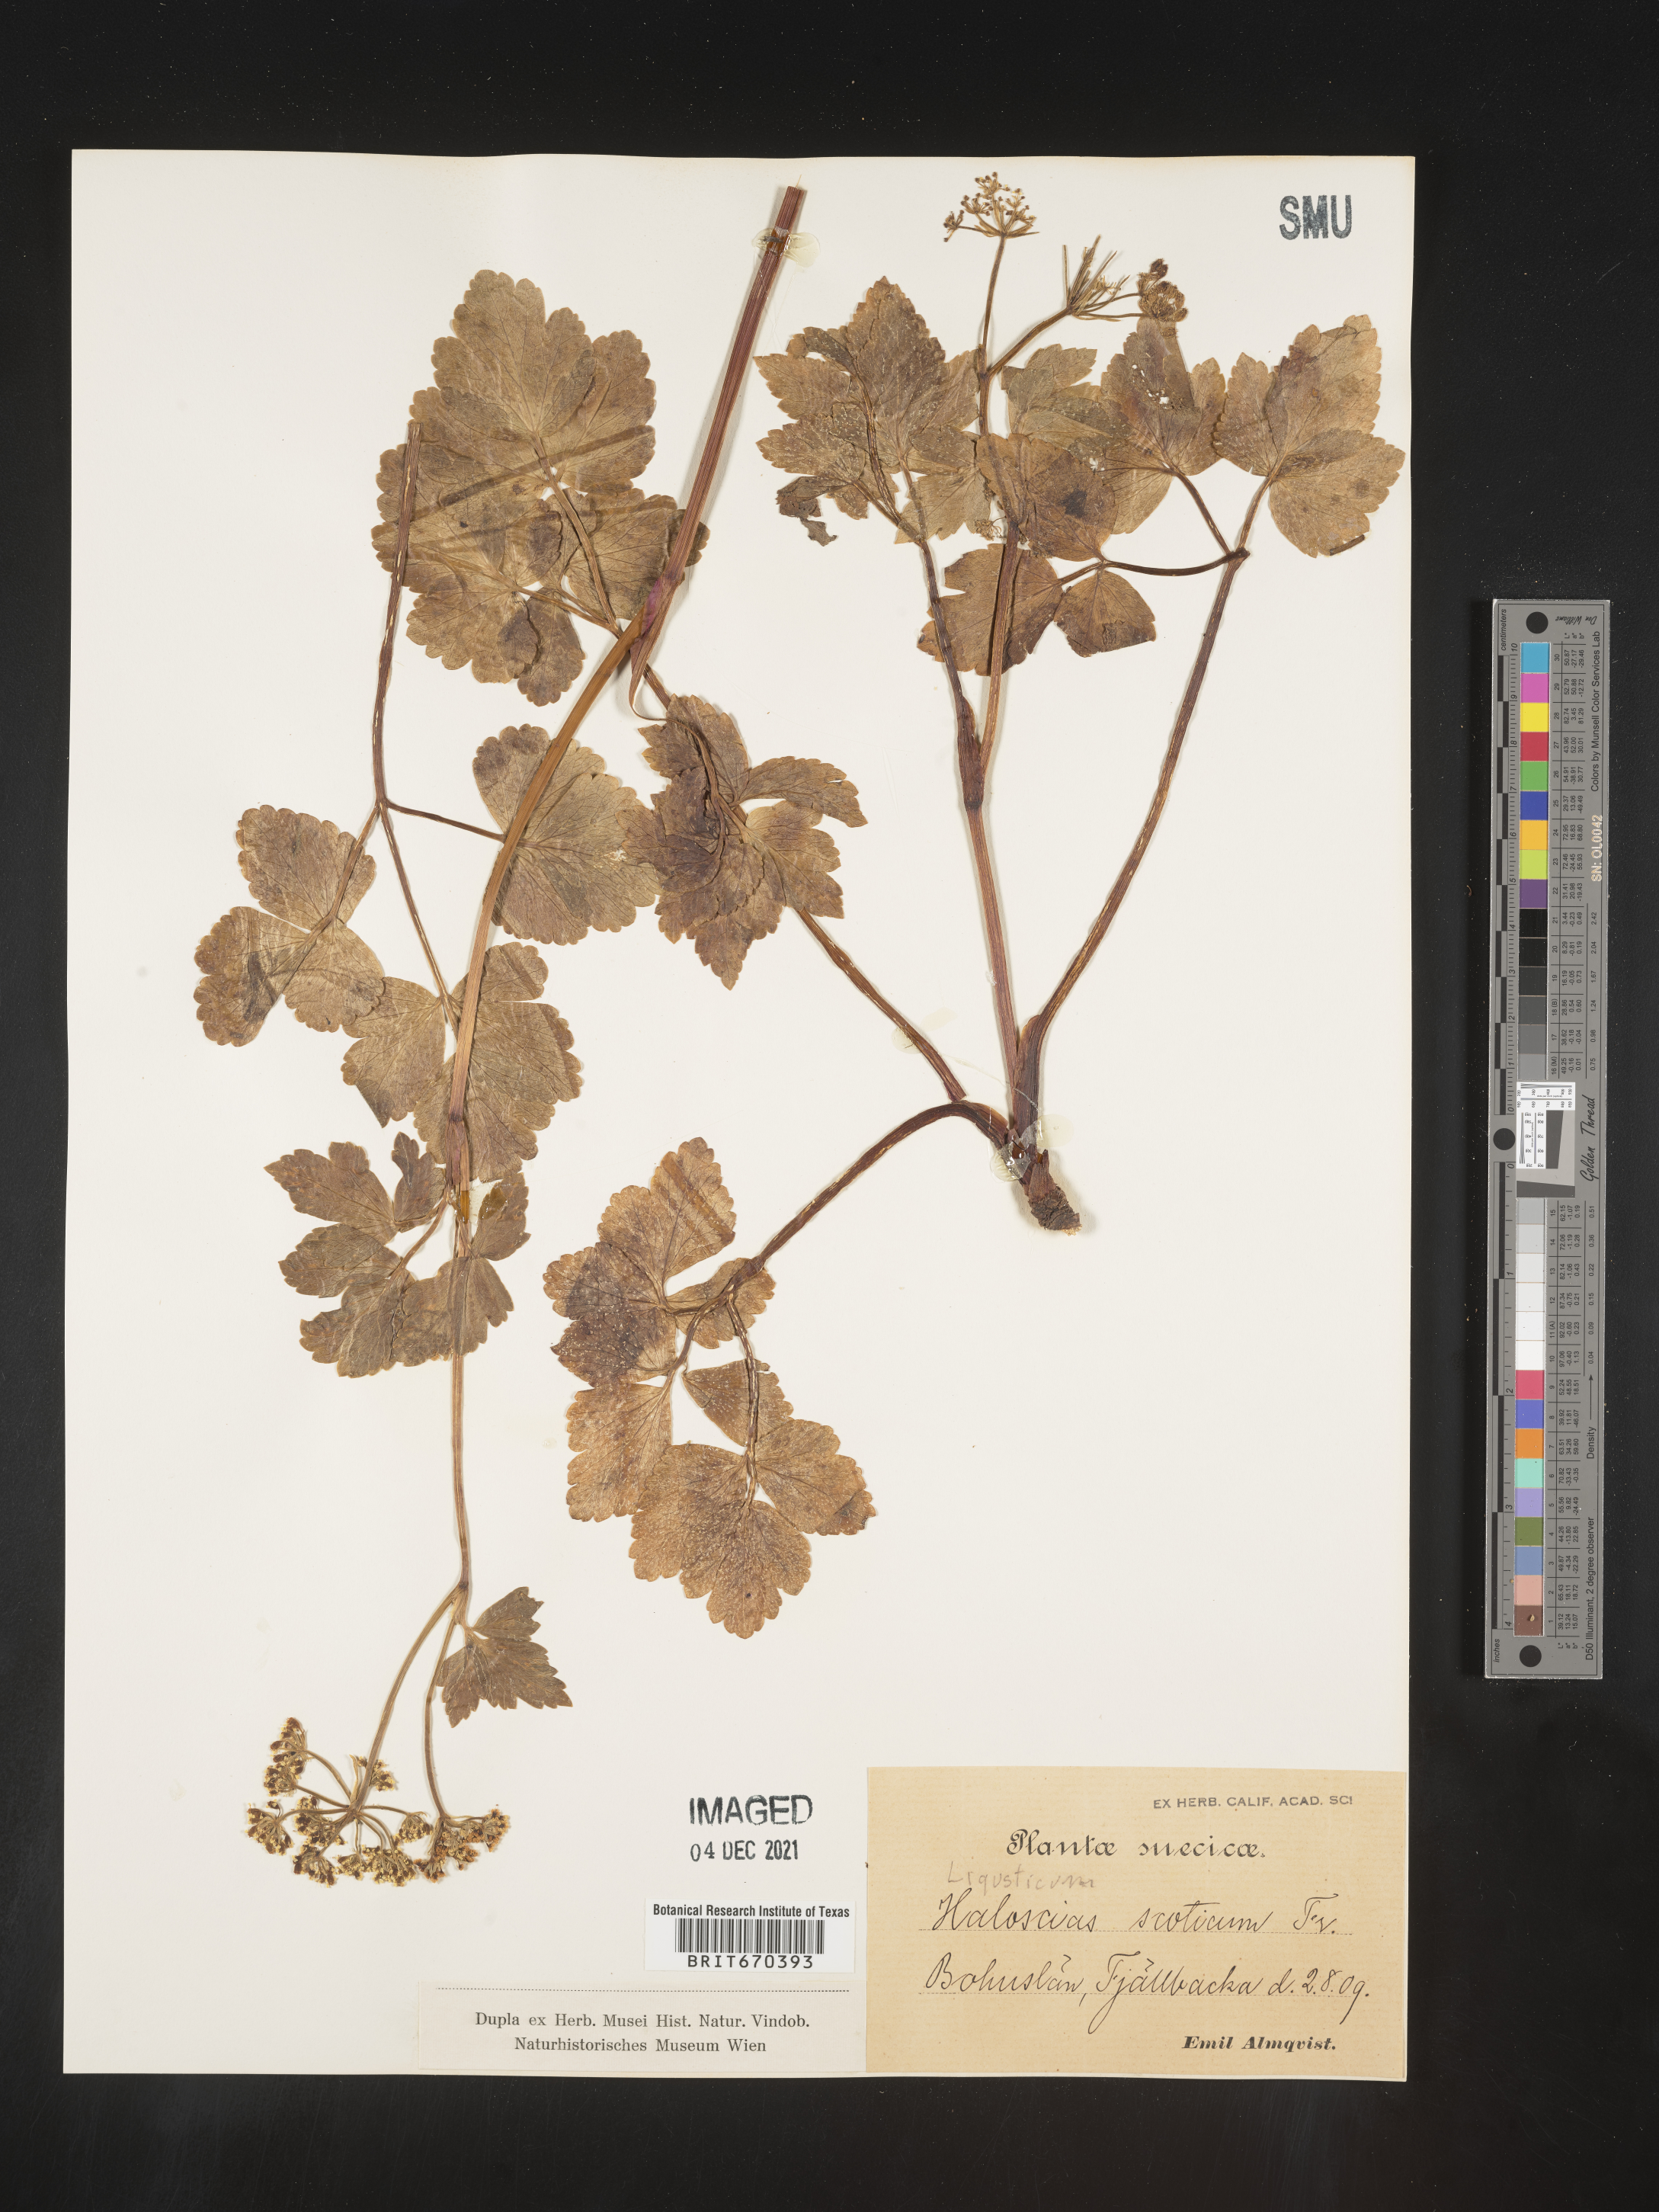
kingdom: Plantae
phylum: Tracheophyta
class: Magnoliopsida
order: Apiales
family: Apiaceae
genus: Ligusticum
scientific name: Ligusticum
